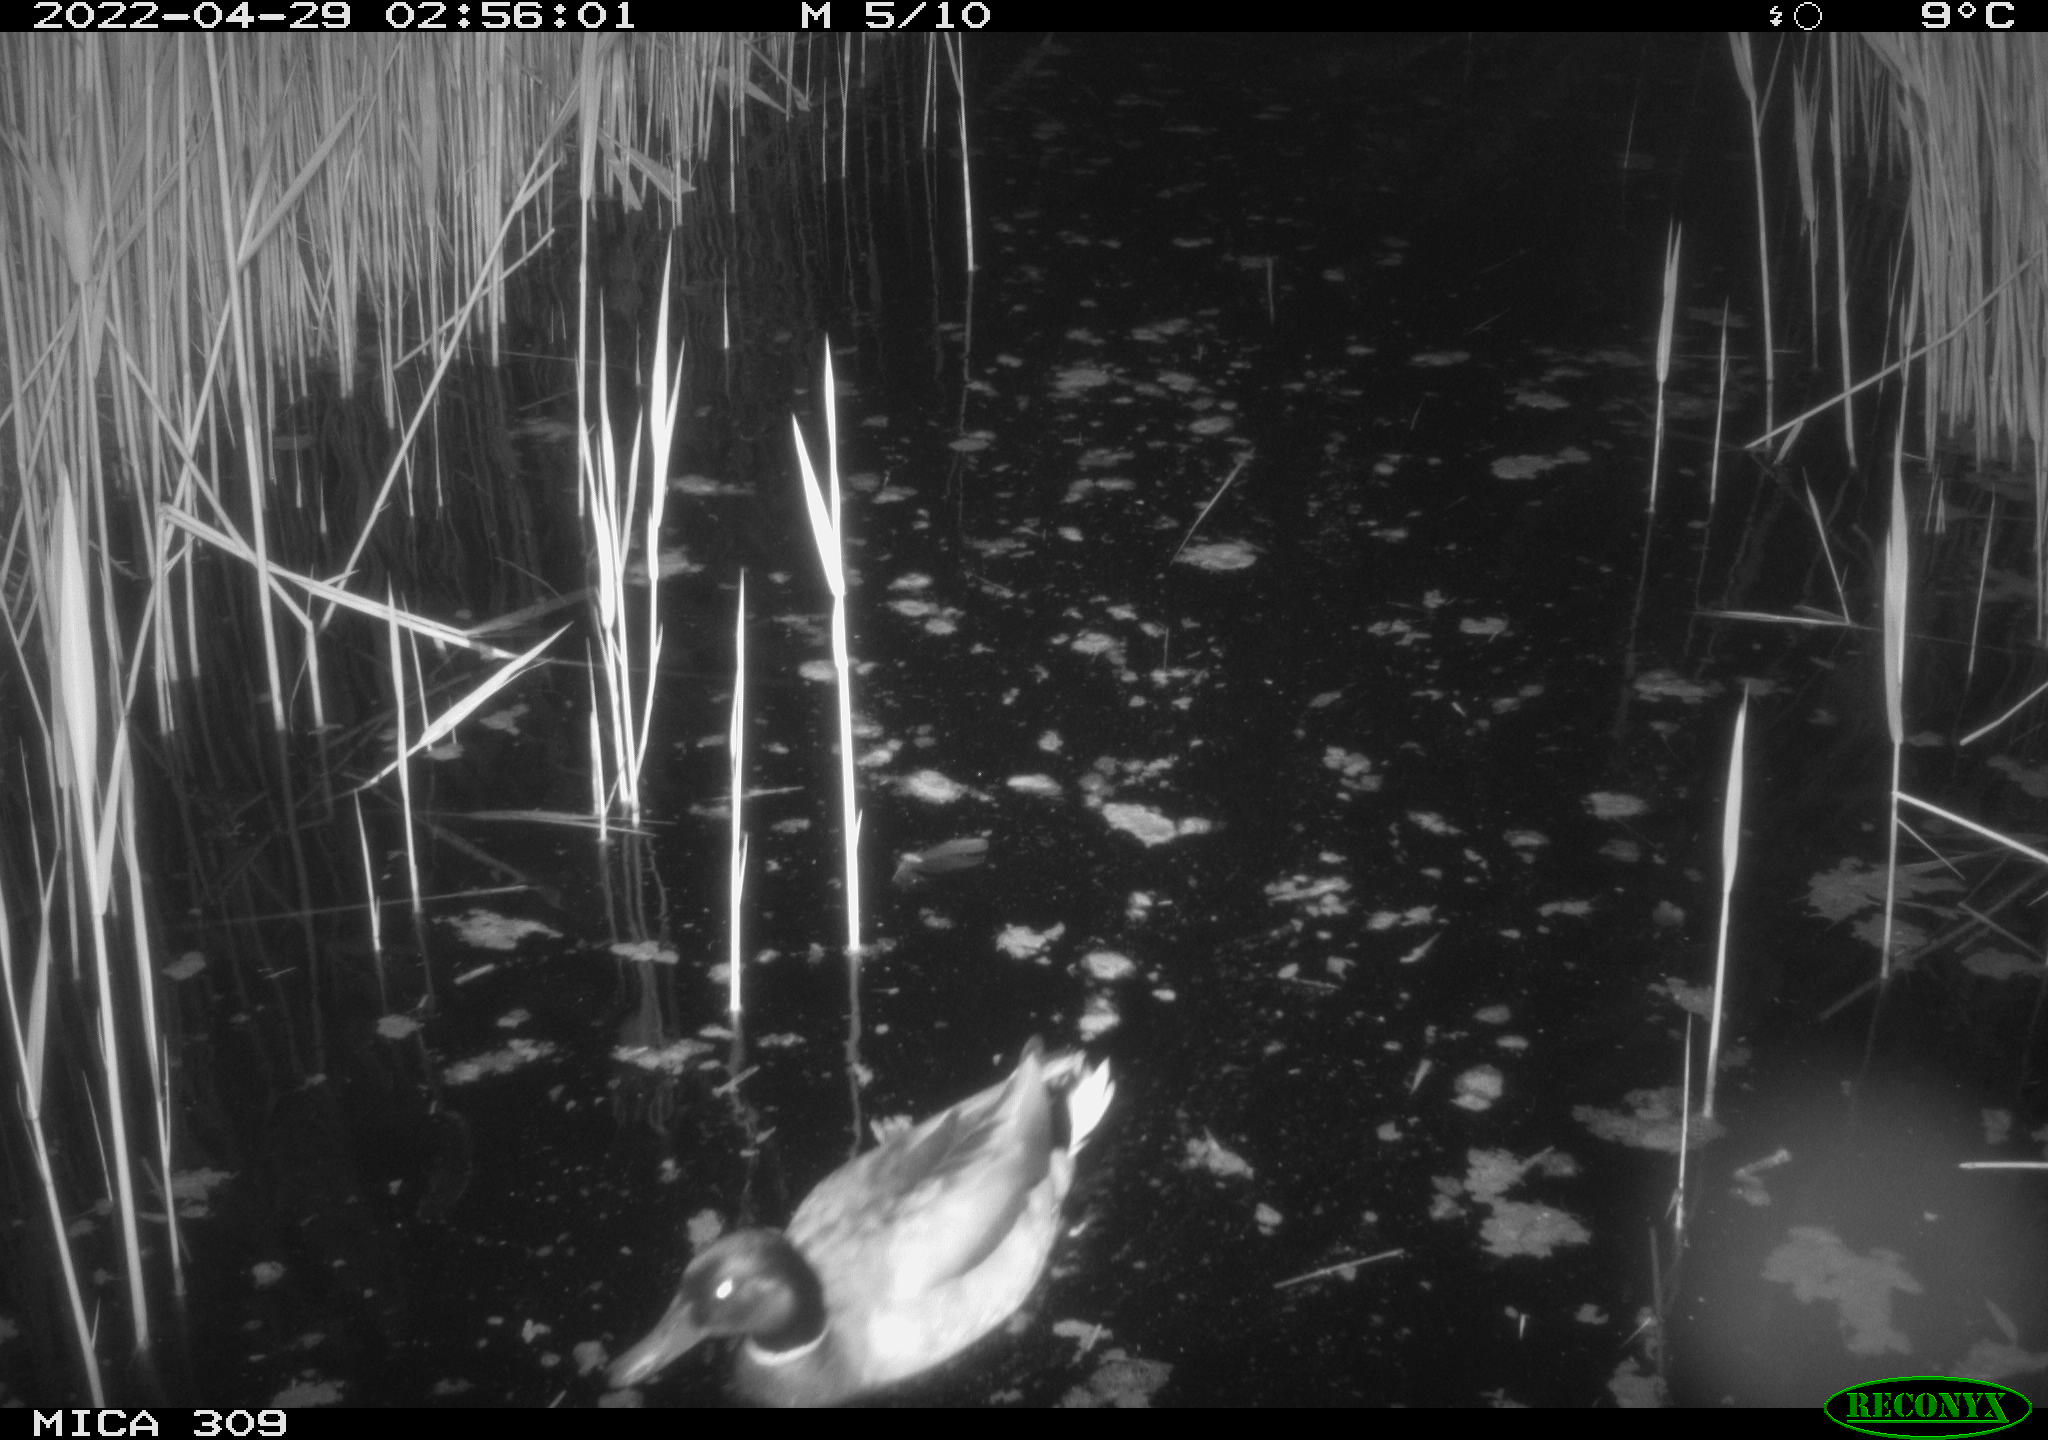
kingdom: Animalia
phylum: Chordata
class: Aves
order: Anseriformes
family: Anatidae
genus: Anas
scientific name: Anas platyrhynchos
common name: Mallard
